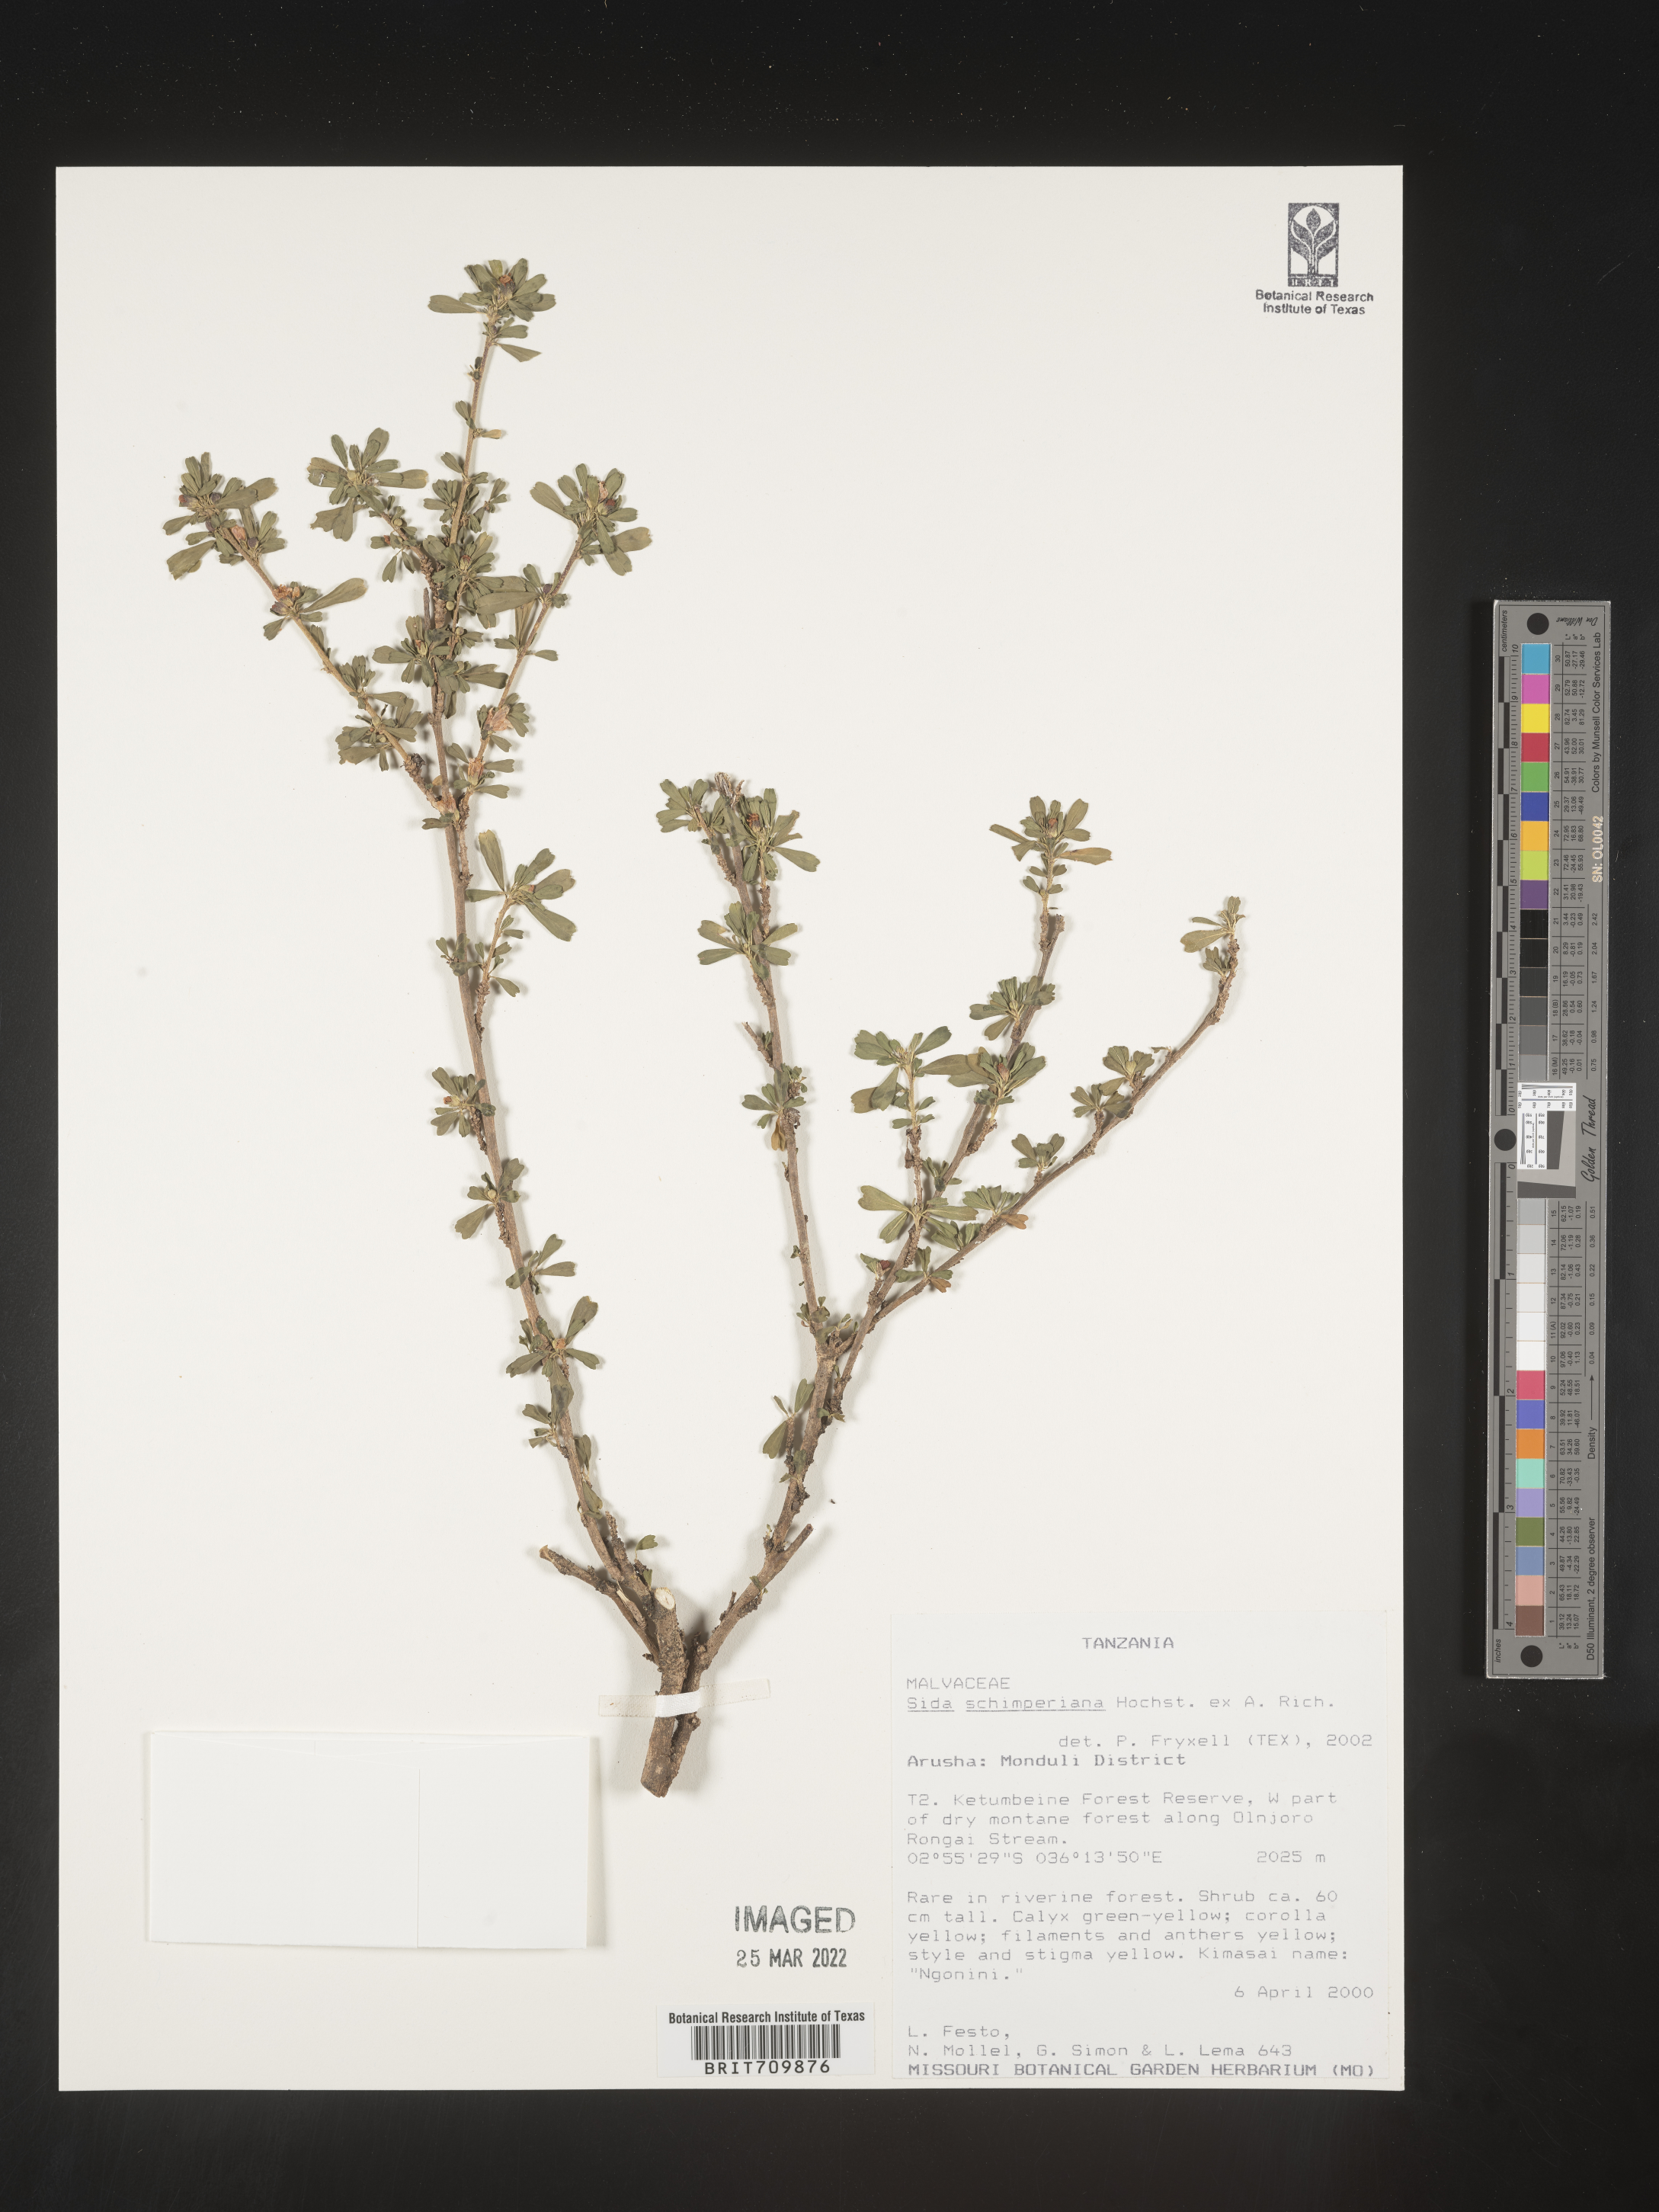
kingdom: Plantae
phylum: Tracheophyta
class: Magnoliopsida
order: Malvales
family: Malvaceae
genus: Sida
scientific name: Sida
